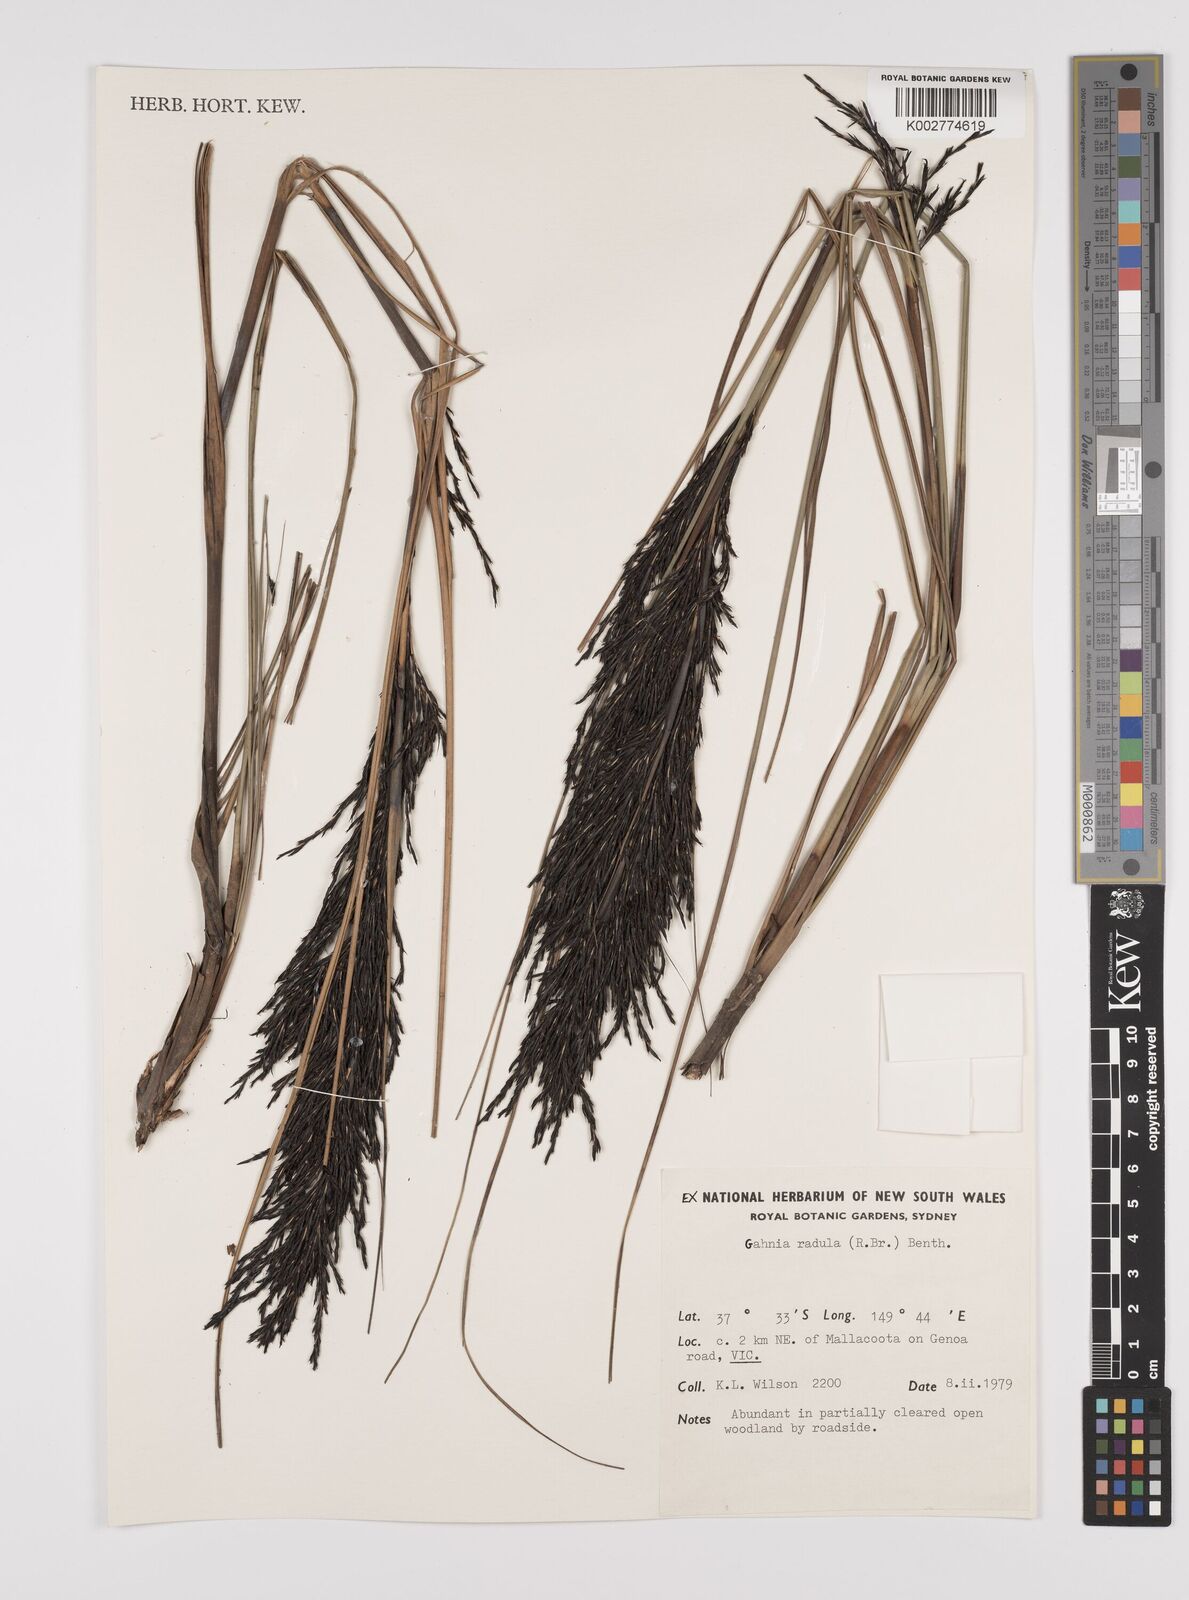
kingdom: Plantae
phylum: Tracheophyta
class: Liliopsida
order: Poales
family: Cyperaceae
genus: Gahnia
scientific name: Gahnia radula
